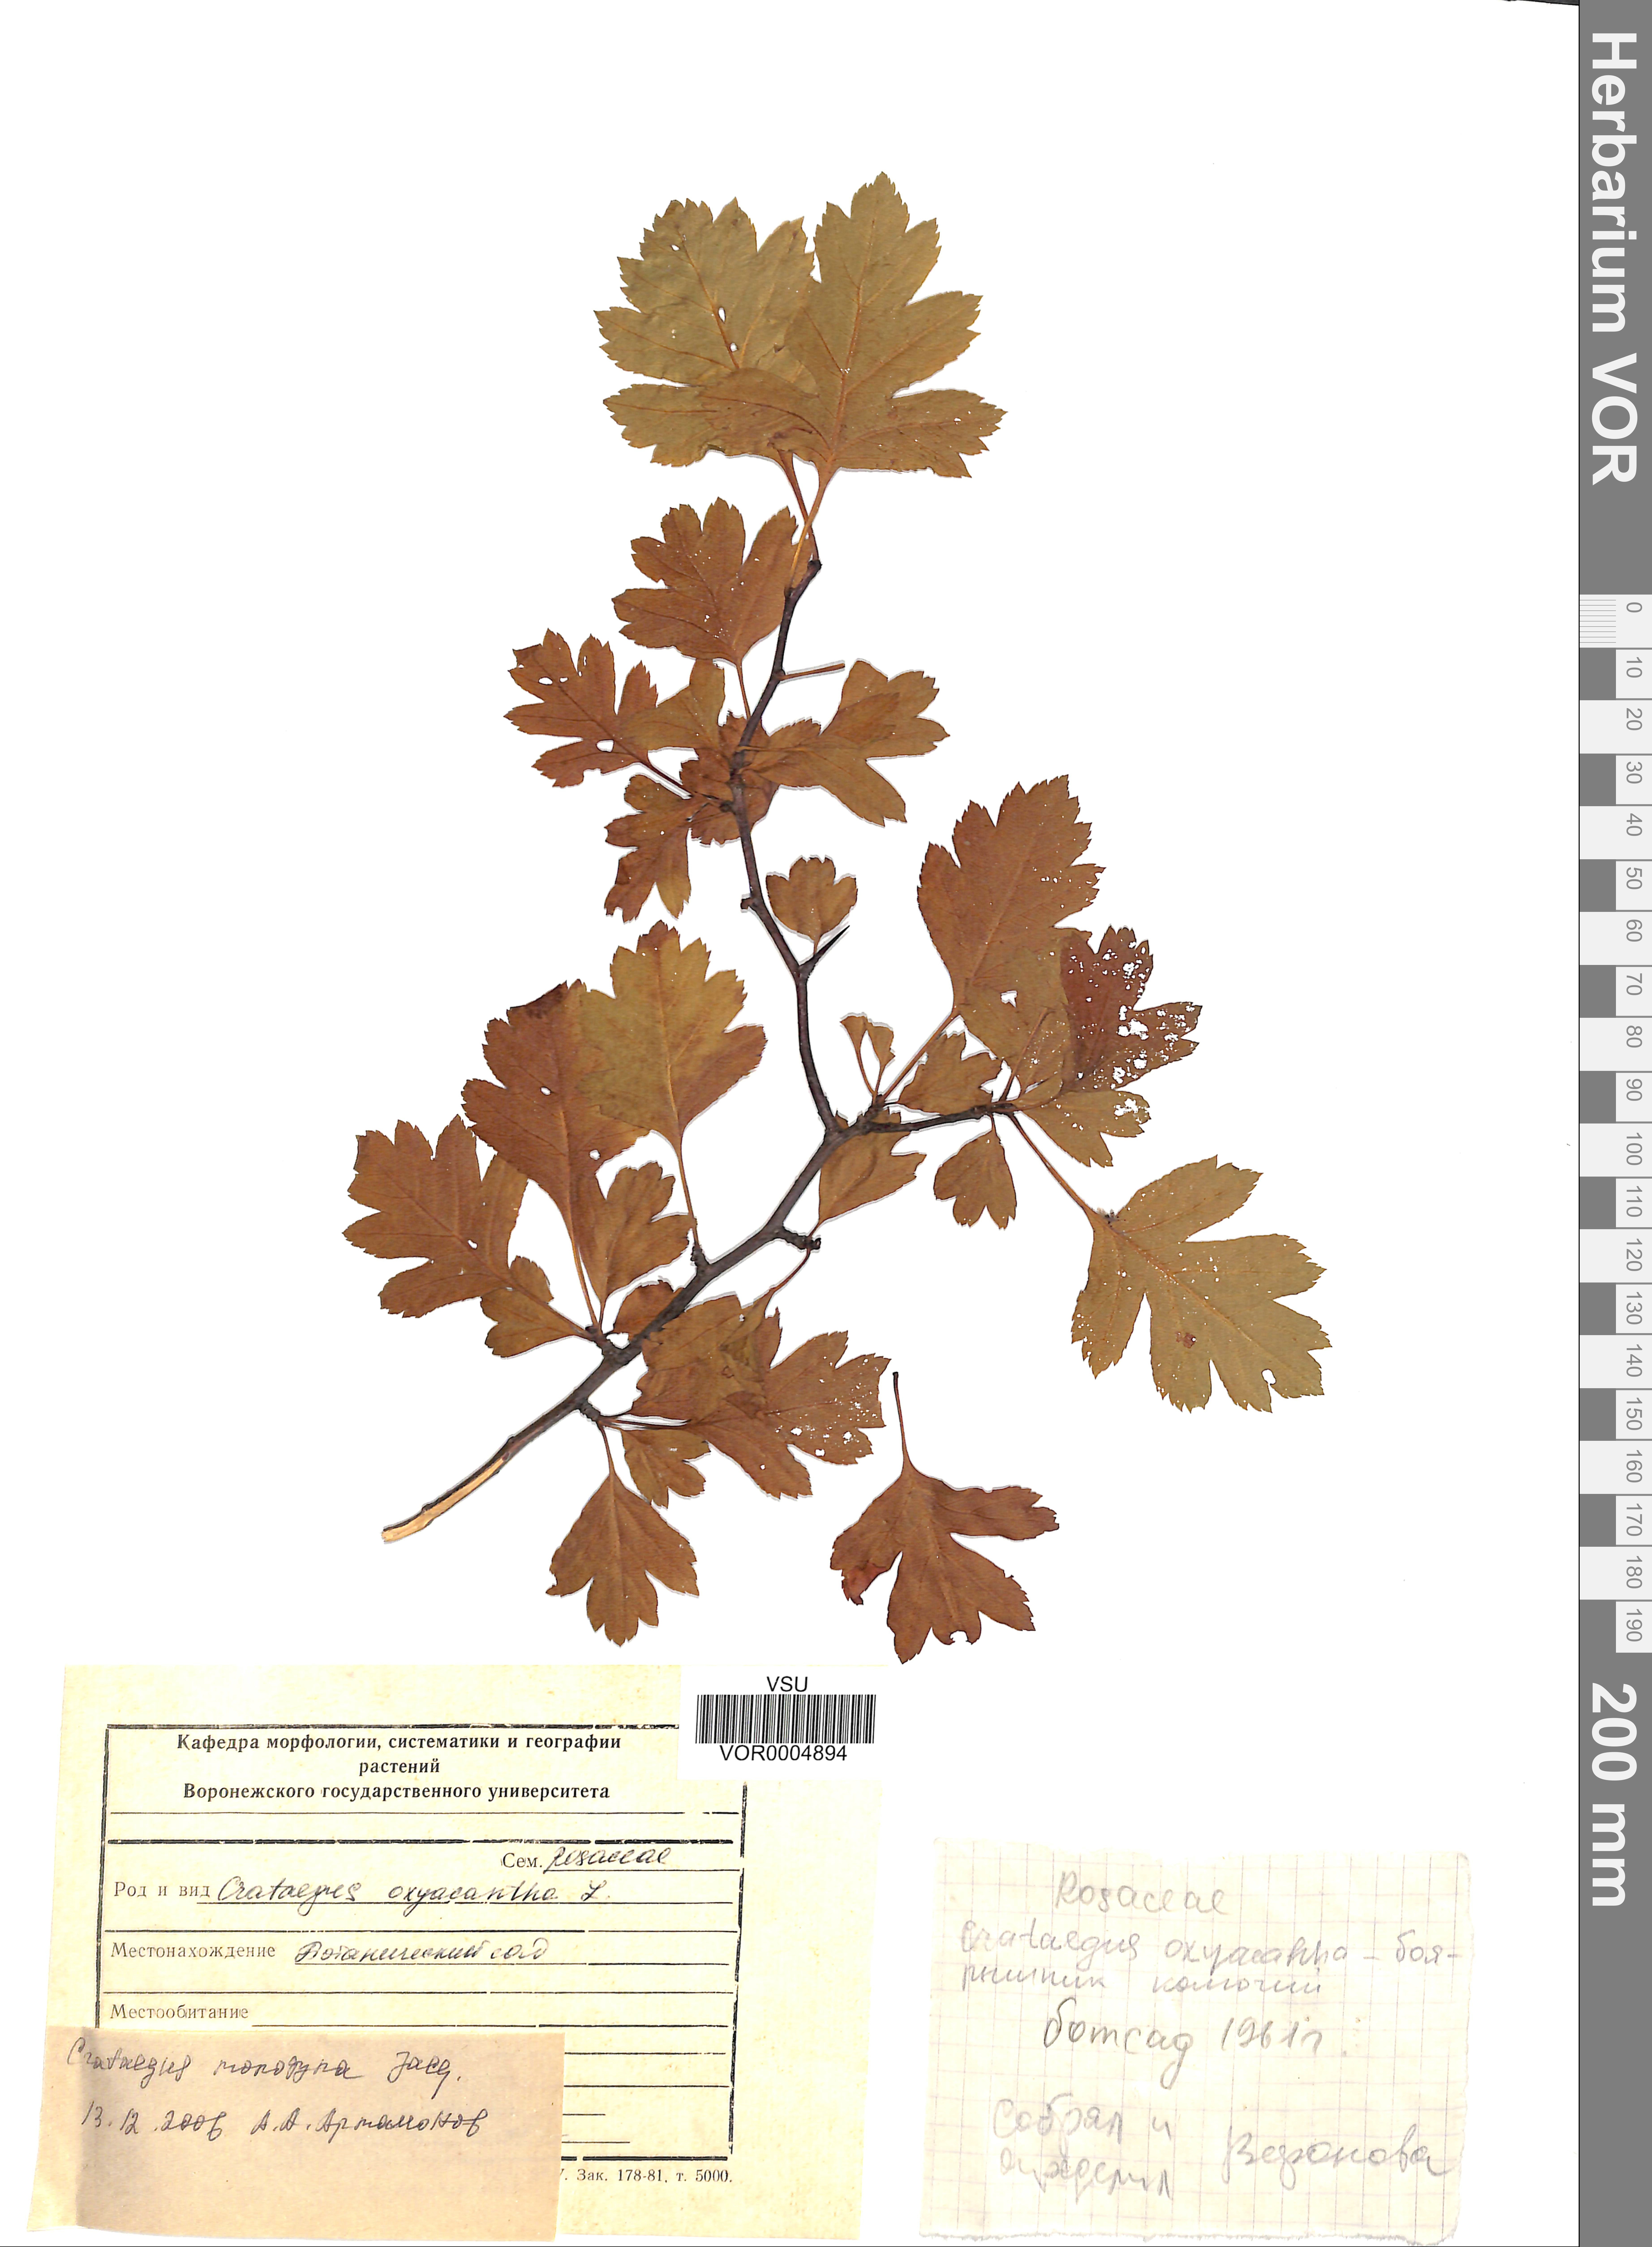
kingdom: Plantae
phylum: Tracheophyta
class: Magnoliopsida
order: Rosales
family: Rosaceae
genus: Crataegus
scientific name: Crataegus monogyna
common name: Hawthorn
